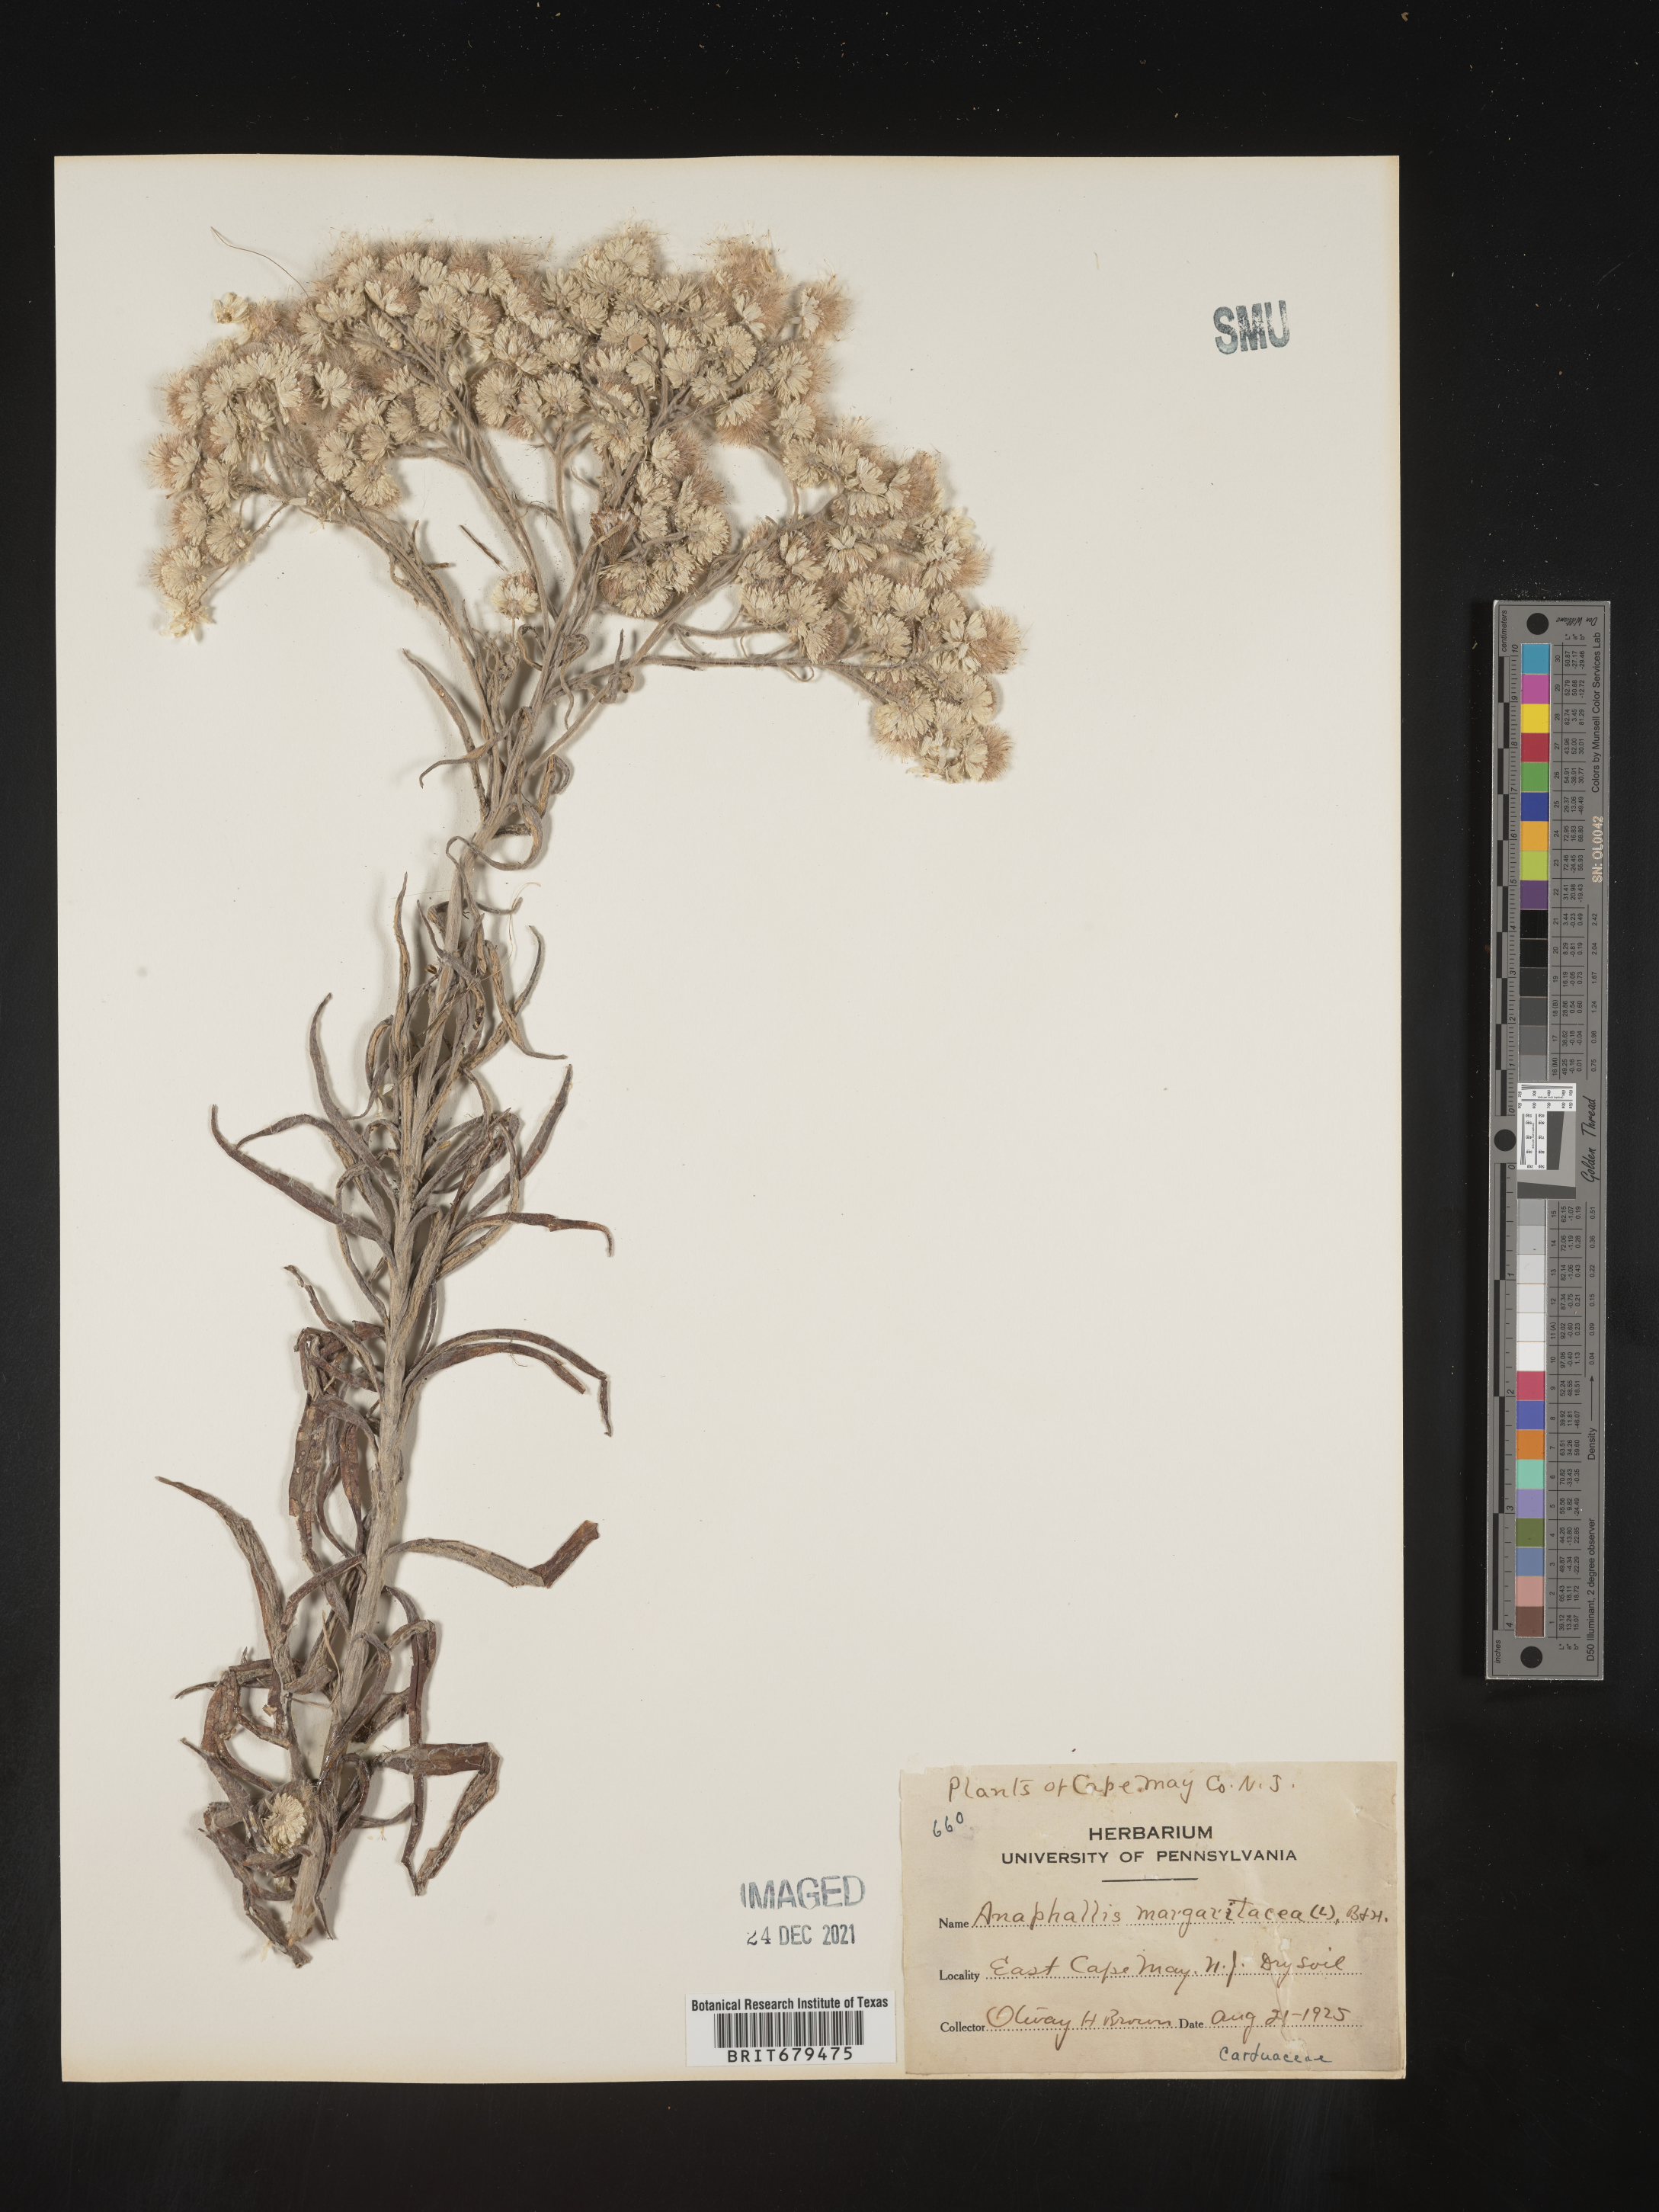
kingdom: Plantae
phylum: Tracheophyta
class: Magnoliopsida
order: Asterales
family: Asteraceae
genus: Anaphalis
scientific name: Anaphalis margaritacea
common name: Pearly everlasting
